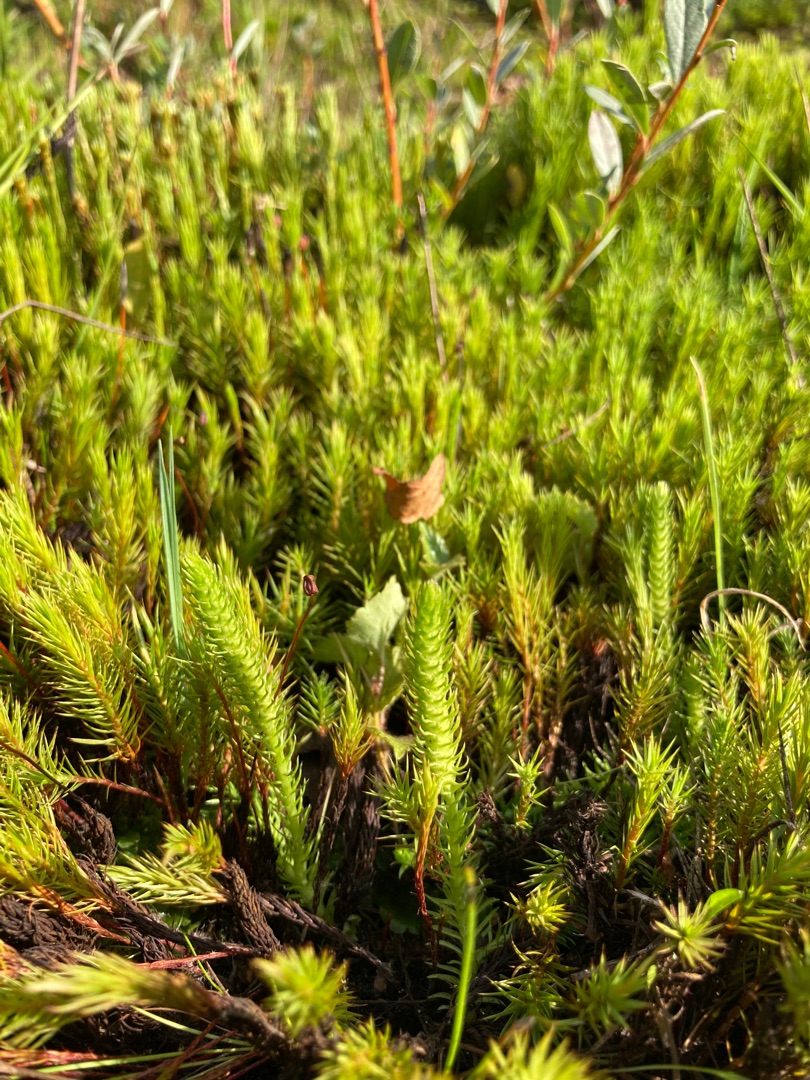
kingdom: Plantae
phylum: Tracheophyta
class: Lycopodiopsida
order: Lycopodiales
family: Lycopodiaceae
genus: Lycopodiella
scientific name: Lycopodiella inundata
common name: Liden ulvefod
